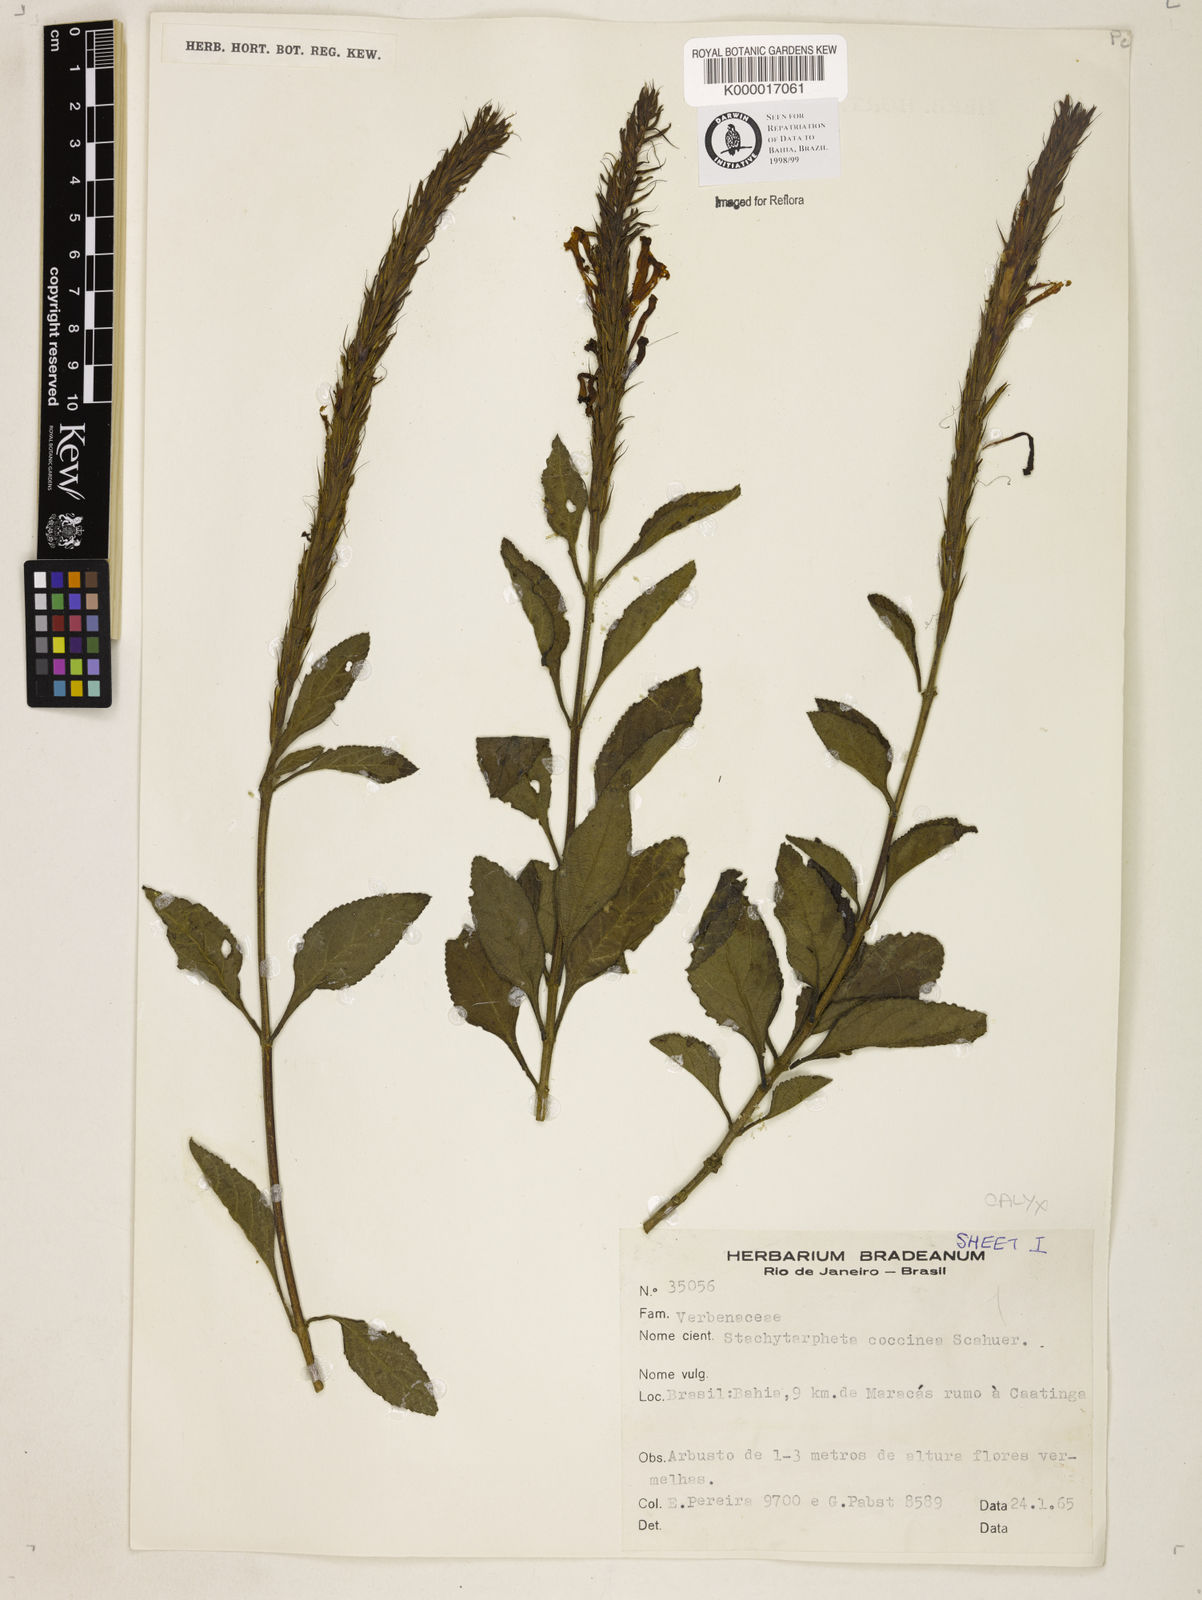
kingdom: Plantae
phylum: Tracheophyta
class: Magnoliopsida
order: Lamiales
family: Verbenaceae
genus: Stachytarpheta
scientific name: Stachytarpheta coccinea
